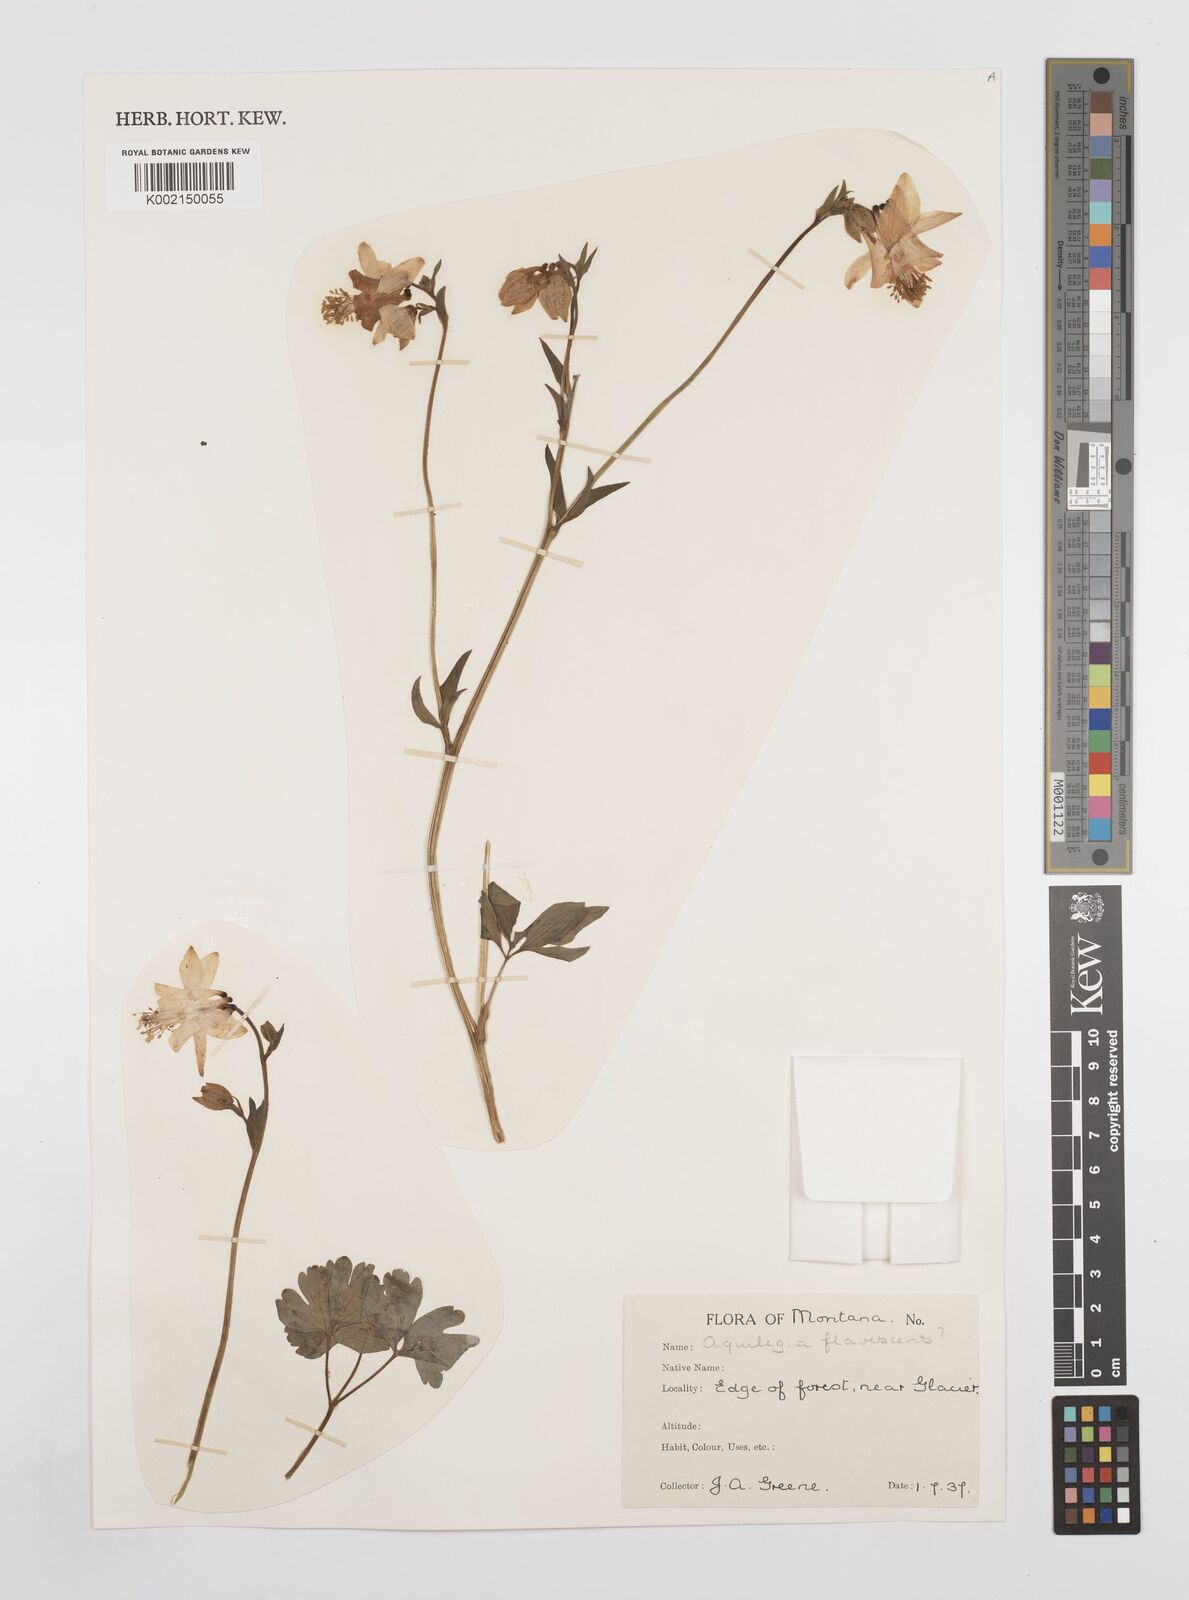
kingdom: Plantae
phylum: Tracheophyta
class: Magnoliopsida
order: Ranunculales
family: Ranunculaceae
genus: Aquilegia
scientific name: Aquilegia flavescens
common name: Yellow columbine
